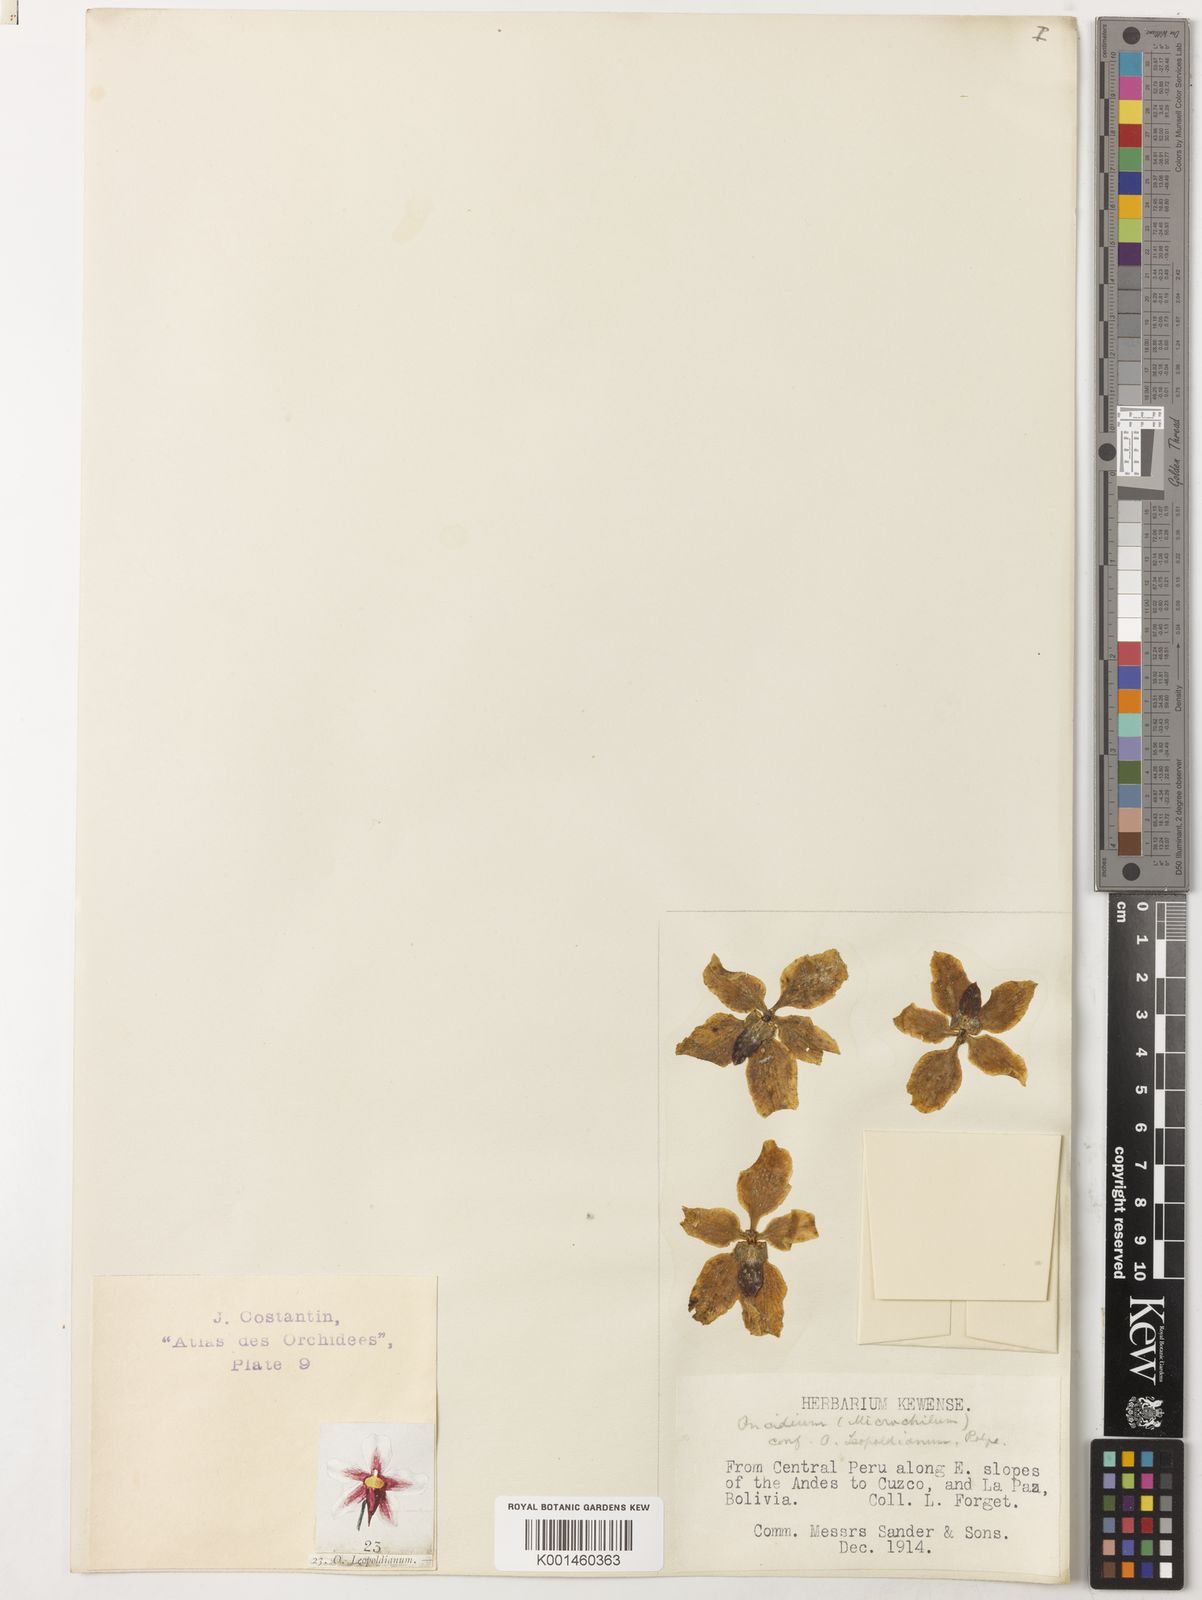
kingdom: Plantae
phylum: Tracheophyta
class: Liliopsida
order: Asparagales
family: Orchidaceae
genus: Cyrtochilum
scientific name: Cyrtochilum leopoldianum
